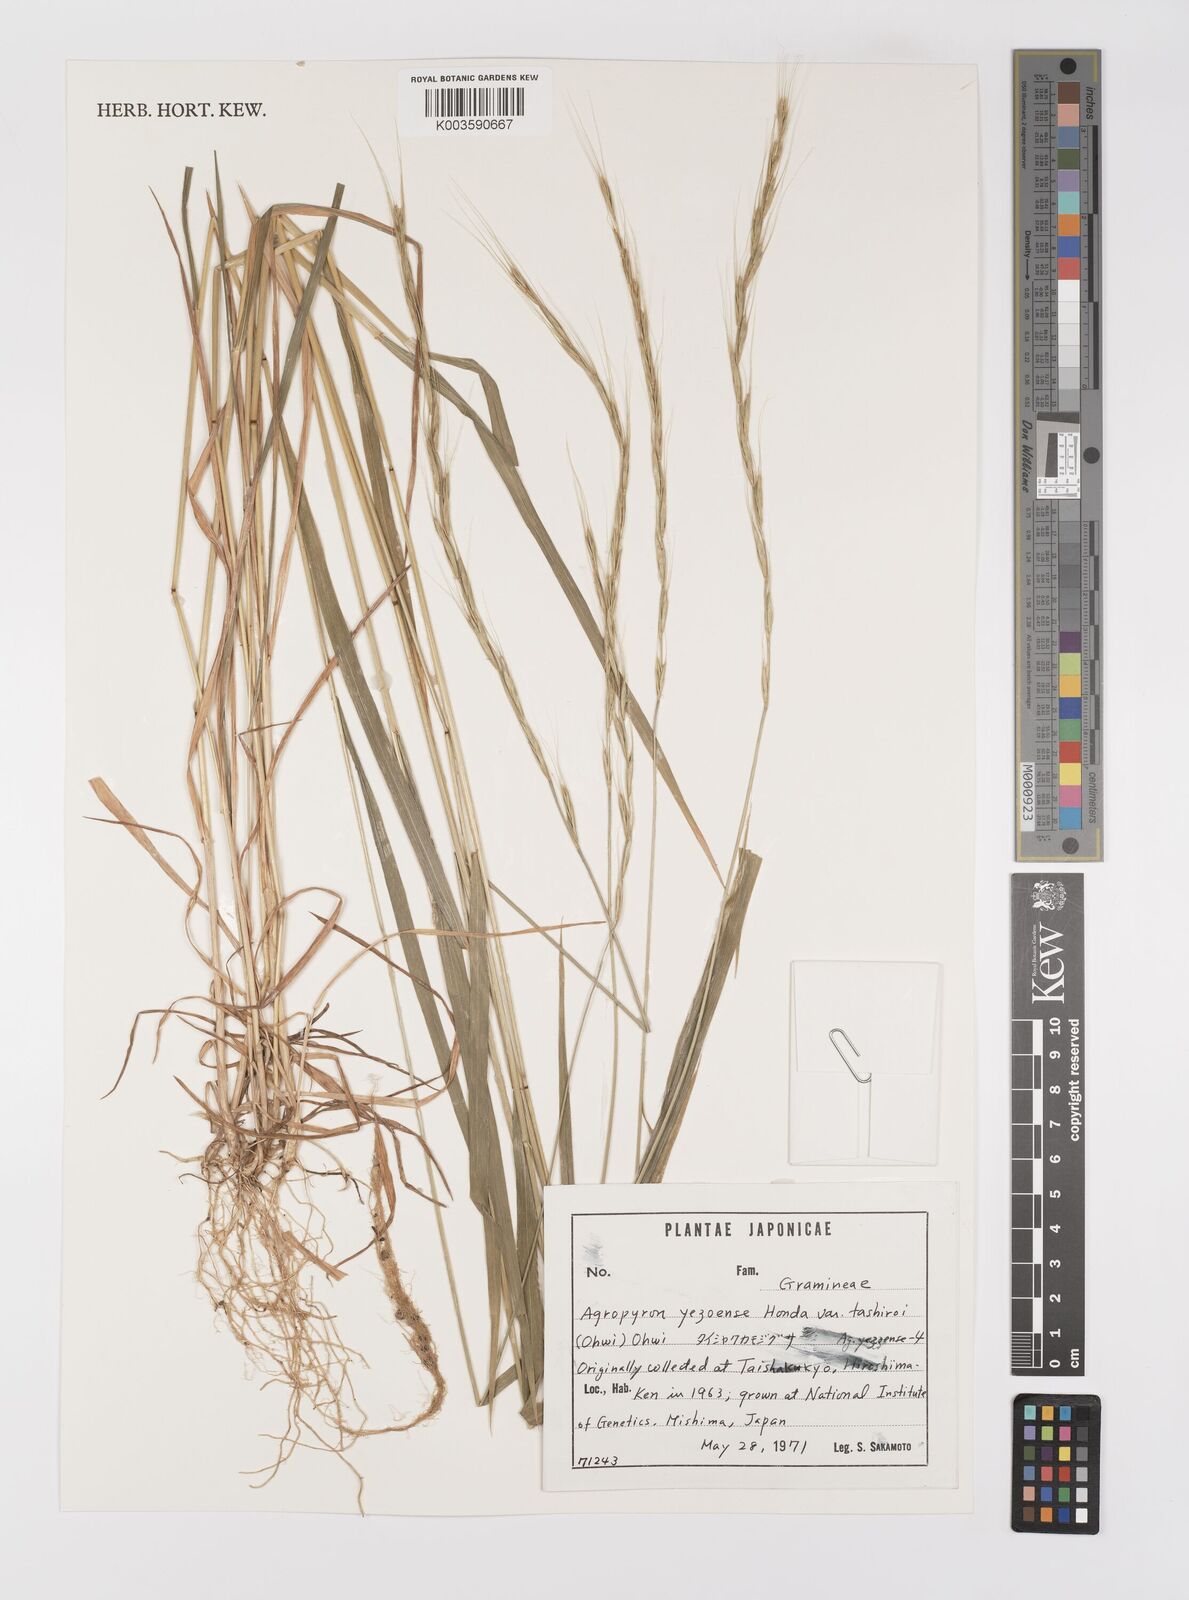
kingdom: Plantae
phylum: Tracheophyta
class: Liliopsida
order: Poales
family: Poaceae
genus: Elymus
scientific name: Elymus nipponicus
